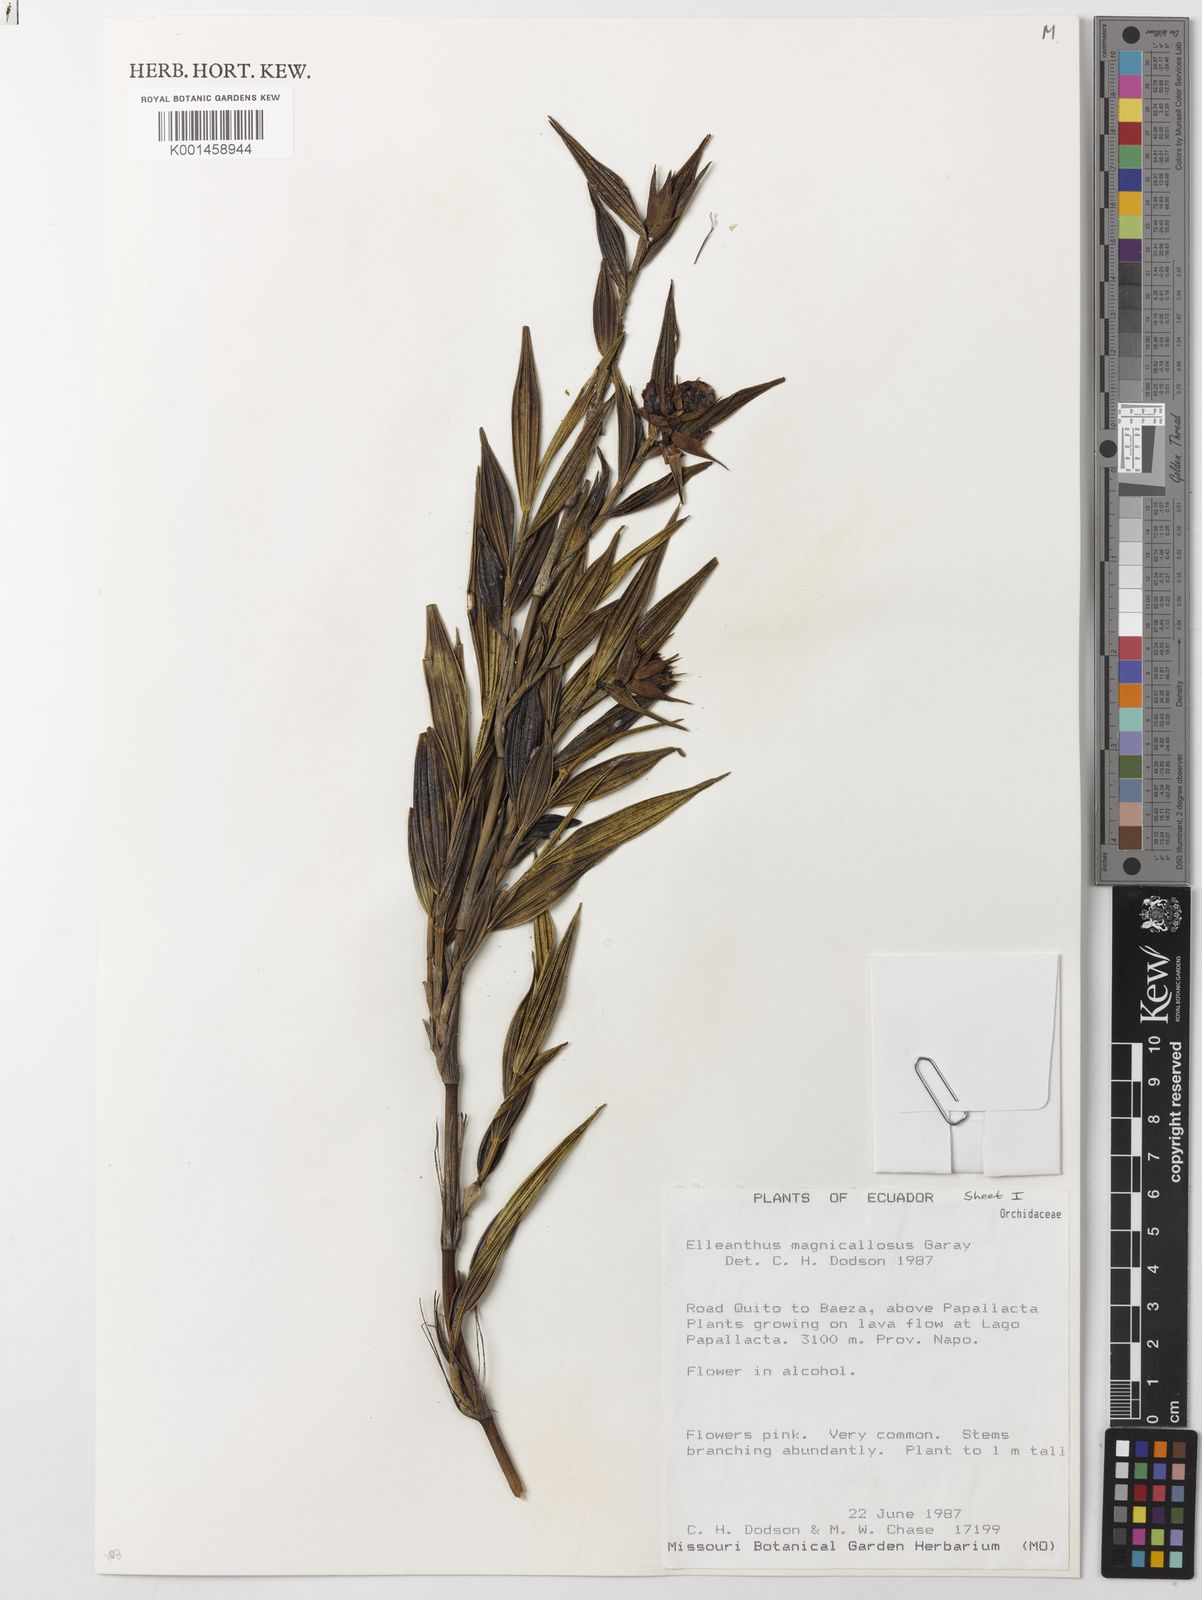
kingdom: Plantae
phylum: Tracheophyta
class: Liliopsida
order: Asparagales
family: Orchidaceae
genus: Elleanthus
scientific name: Elleanthus magnicallosus
